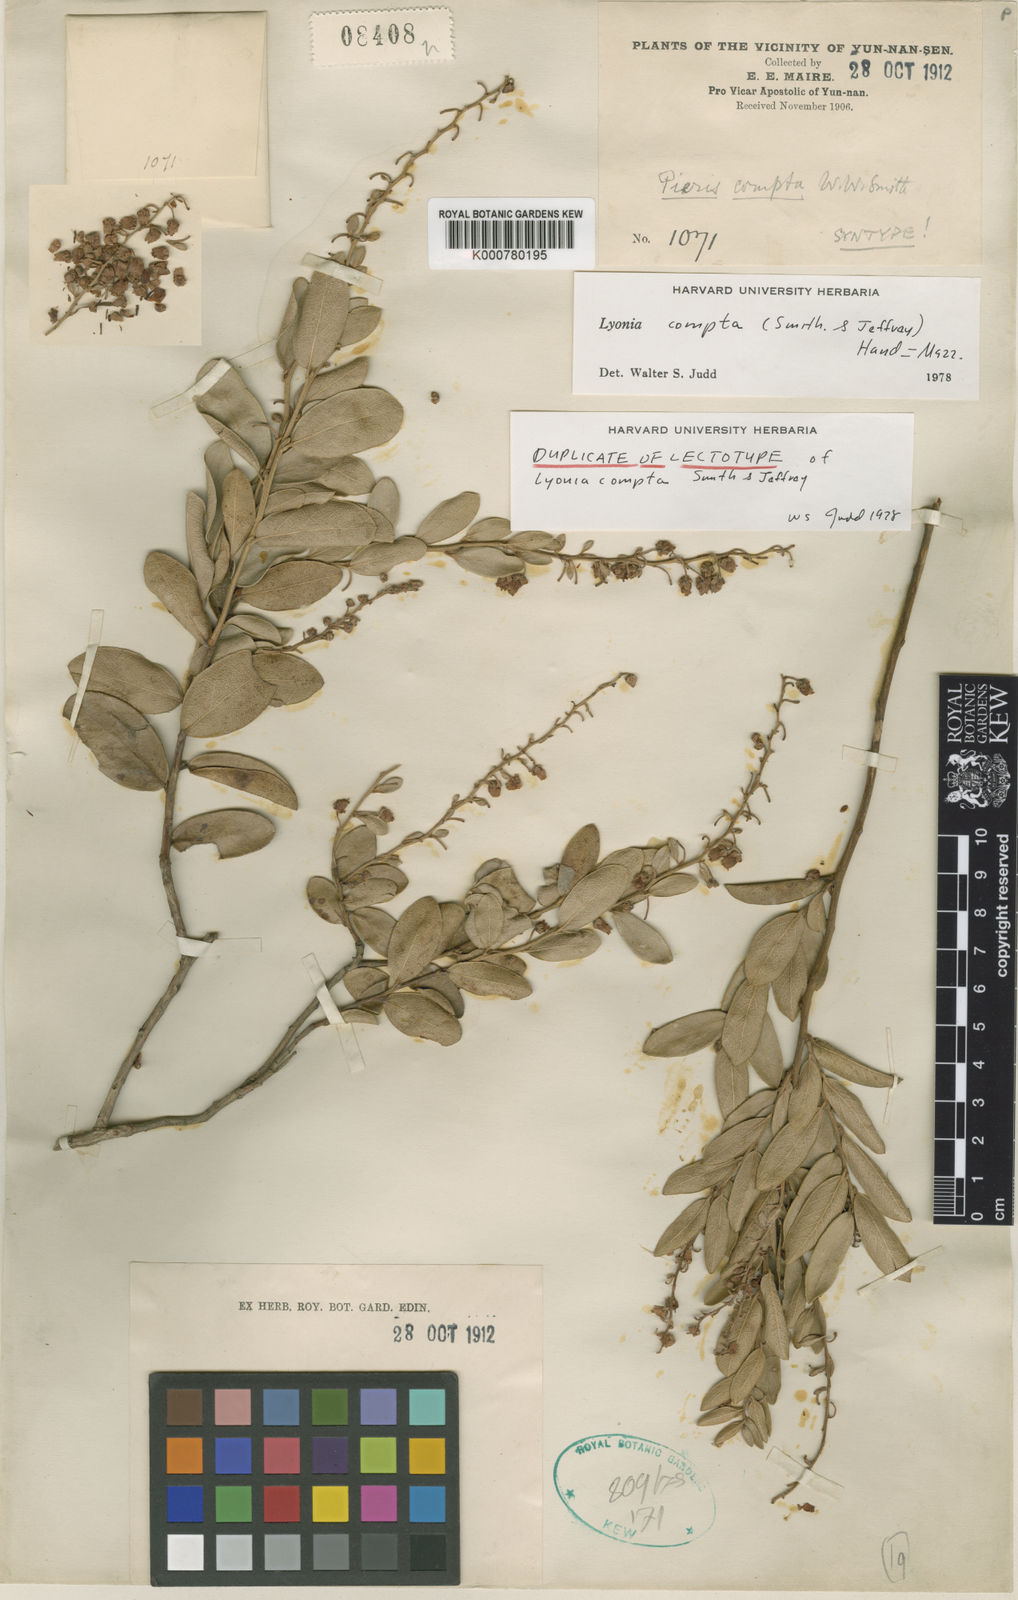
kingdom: Plantae
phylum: Tracheophyta
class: Magnoliopsida
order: Ericales
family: Ericaceae
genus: Lyonia
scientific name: Lyonia compta
